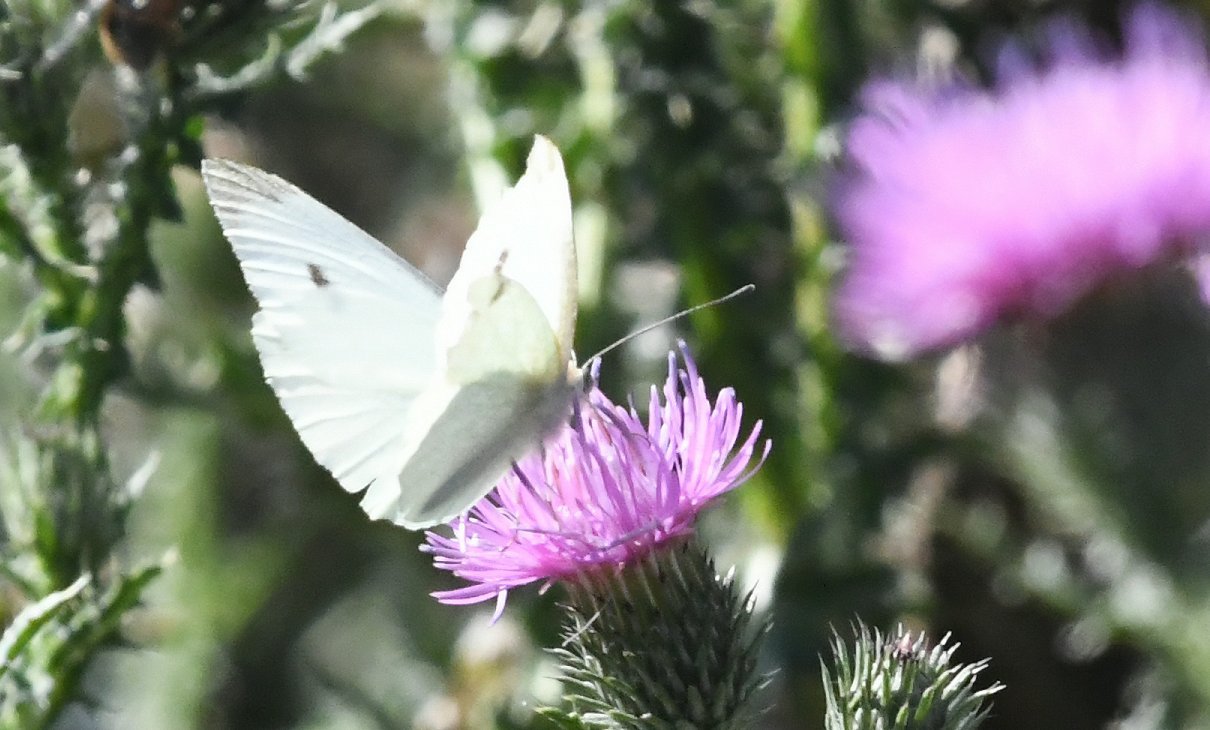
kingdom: Animalia
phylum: Arthropoda
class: Insecta
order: Lepidoptera
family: Pieridae
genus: Pieris
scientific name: Pieris rapae
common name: Cabbage White
